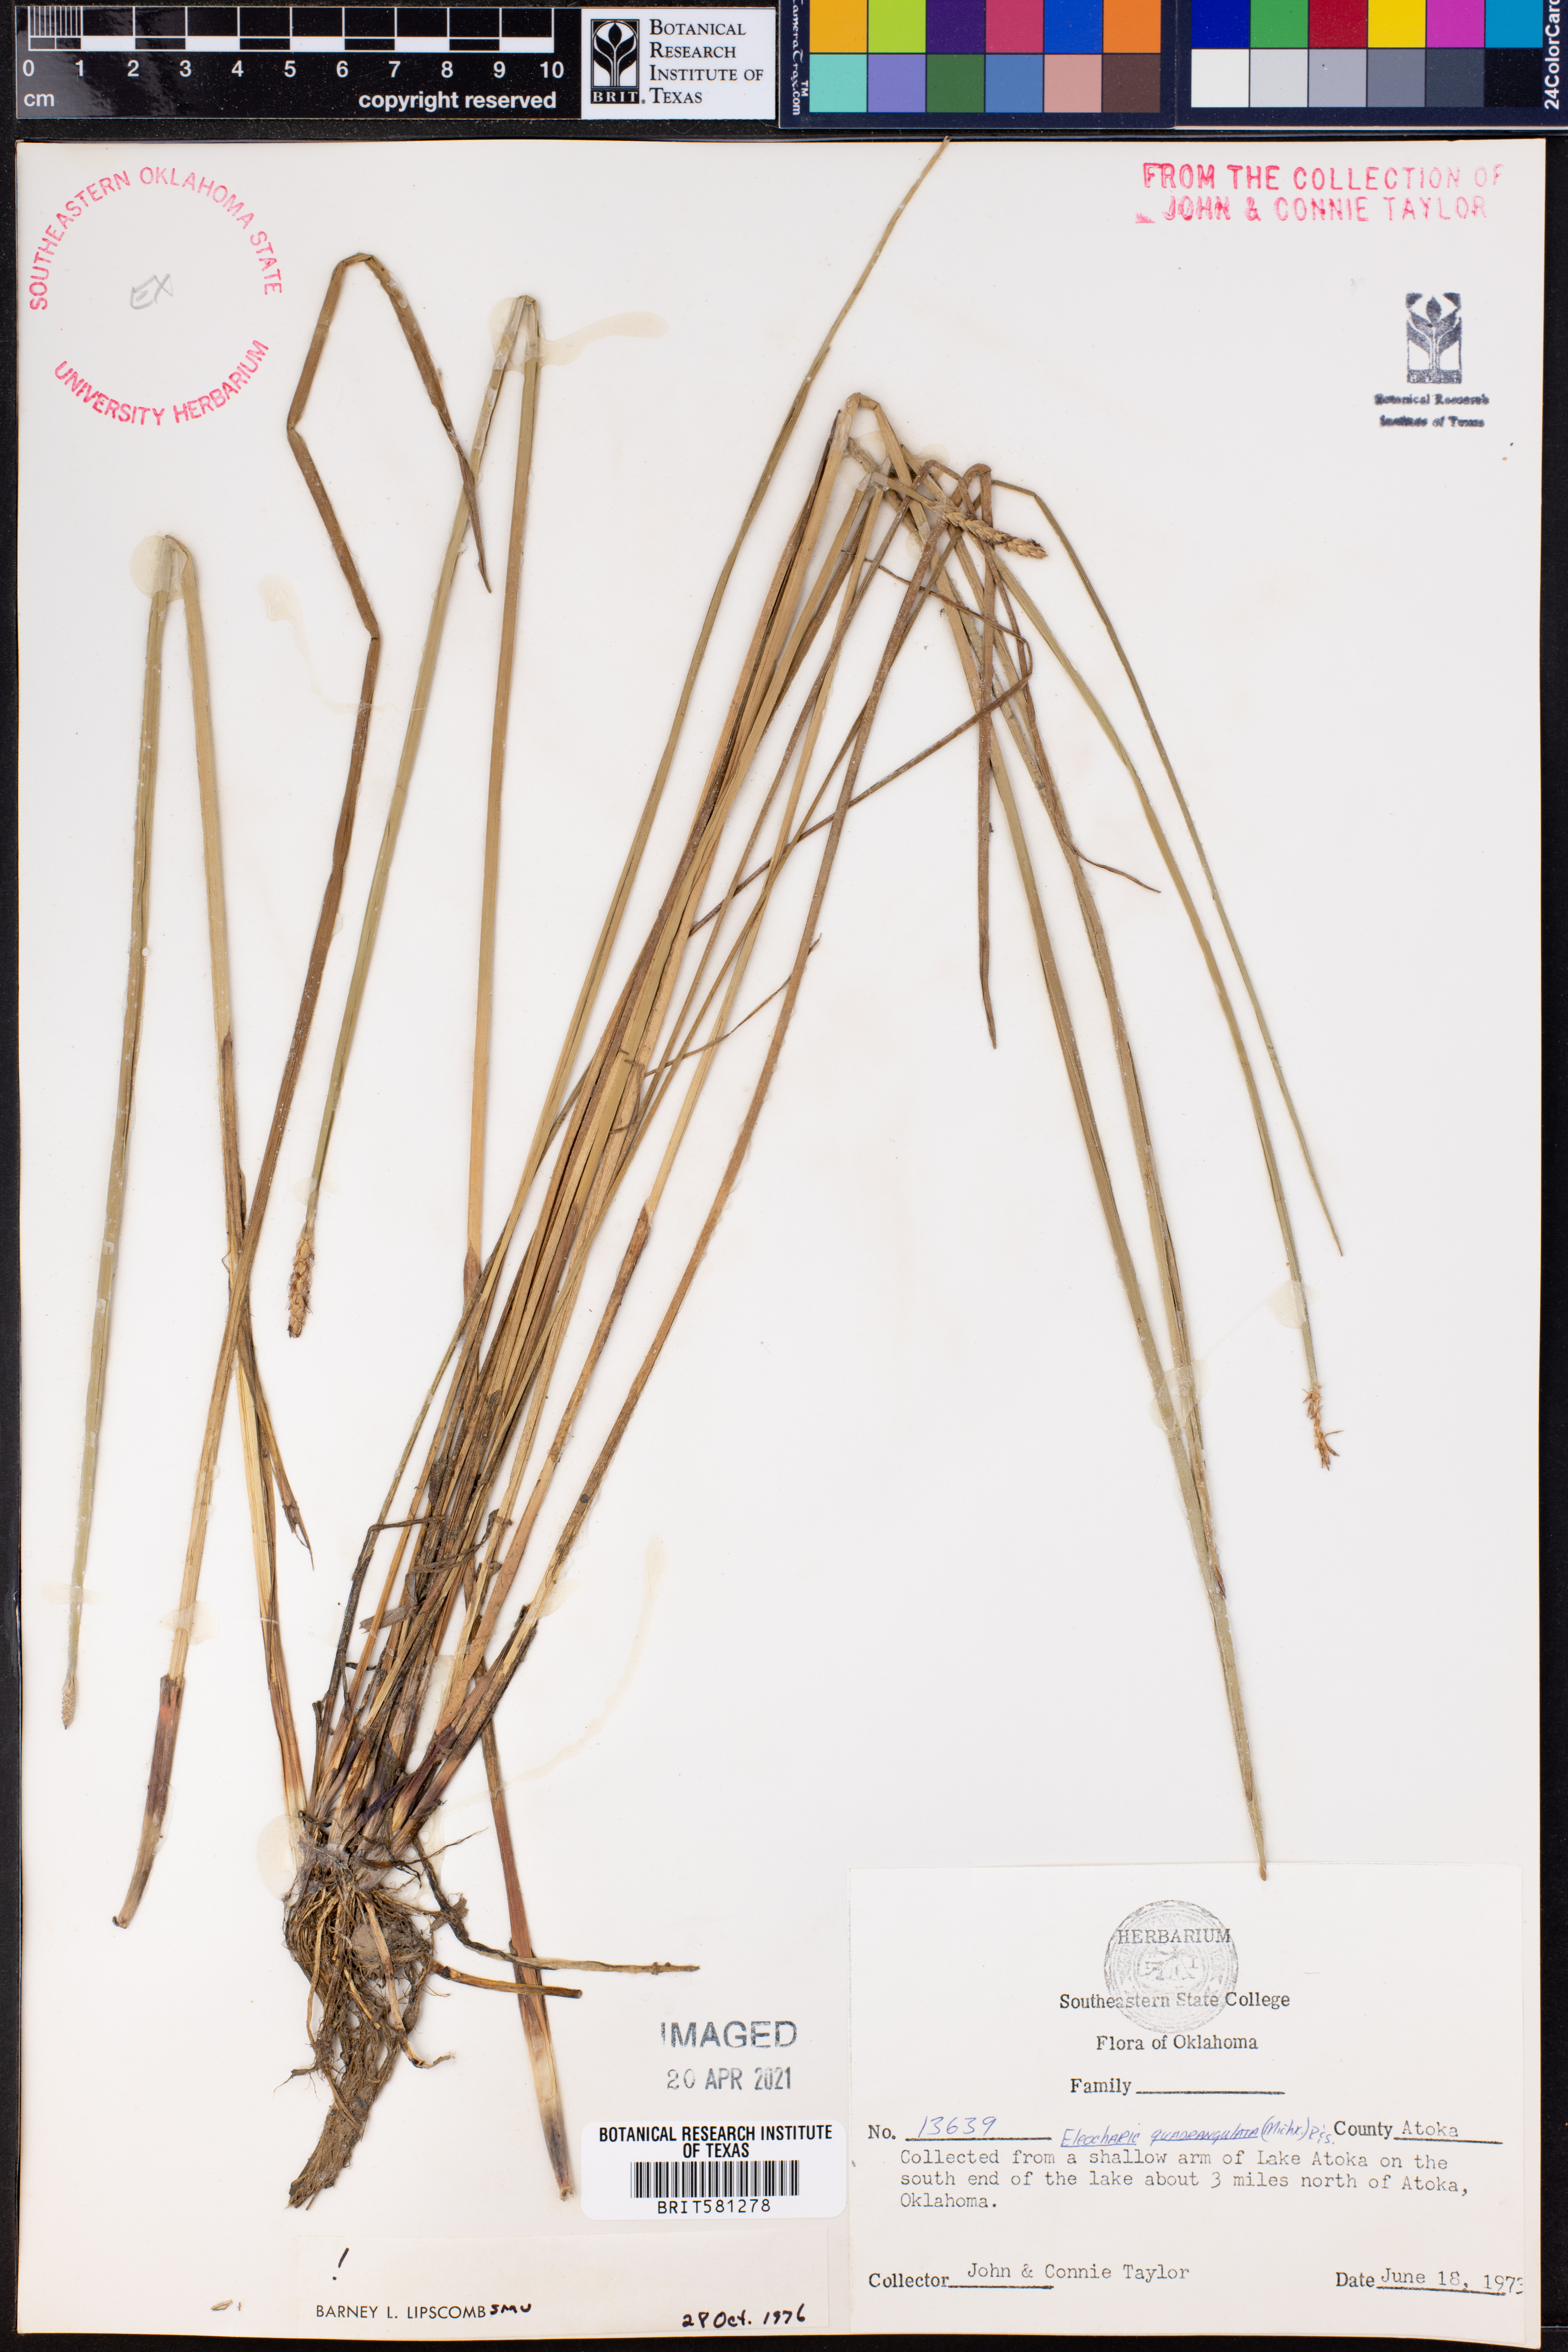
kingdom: Plantae
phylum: Tracheophyta
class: Liliopsida
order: Poales
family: Cyperaceae
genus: Eleocharis
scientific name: Eleocharis quadrangulata
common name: Square-stem spike-rush
